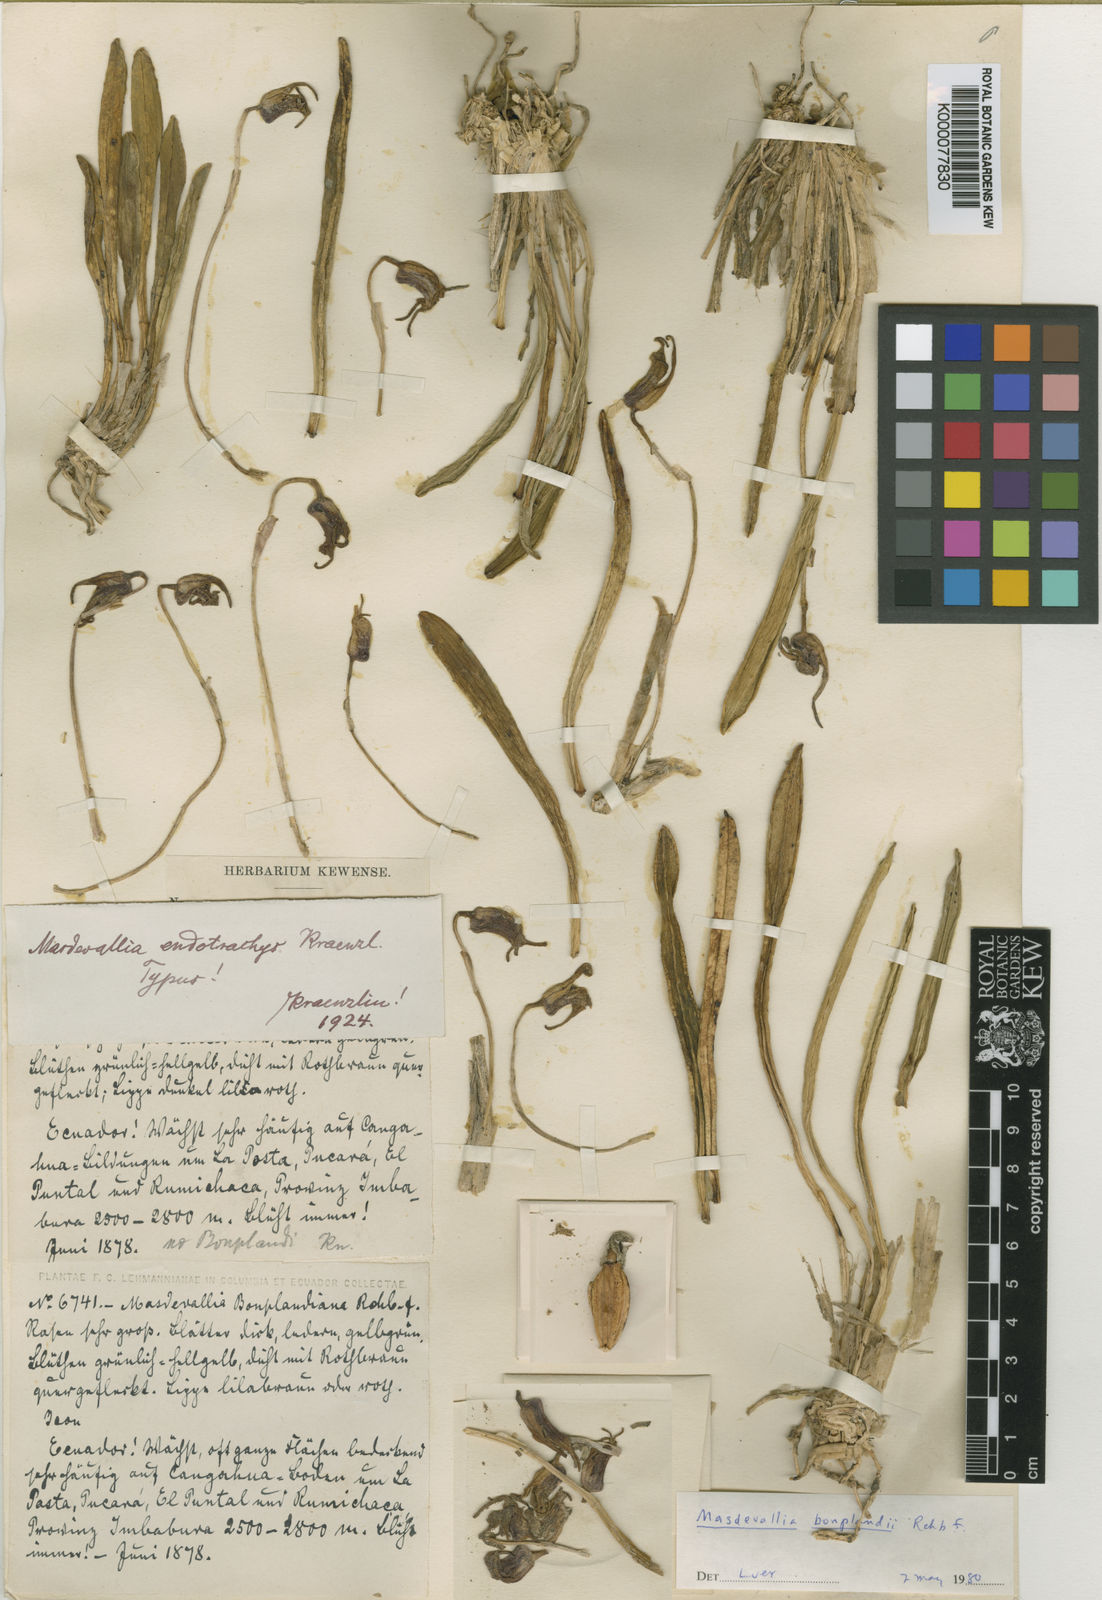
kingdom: Plantae
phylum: Tracheophyta
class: Liliopsida
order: Asparagales
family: Orchidaceae
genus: Masdevallia
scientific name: Masdevallia coriacea
